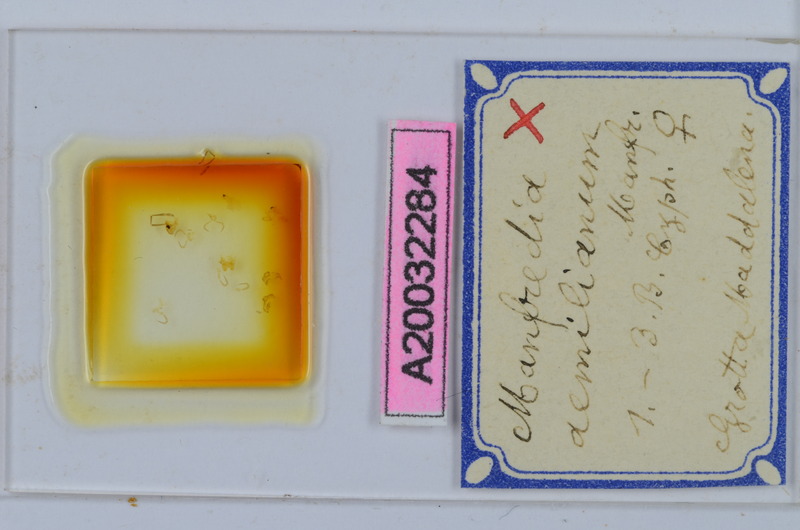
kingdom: Animalia
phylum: Arthropoda
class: Diplopoda
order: Chordeumatida
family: Craspedosomatidae
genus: Manfredia
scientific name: Manfredia aemiliana
